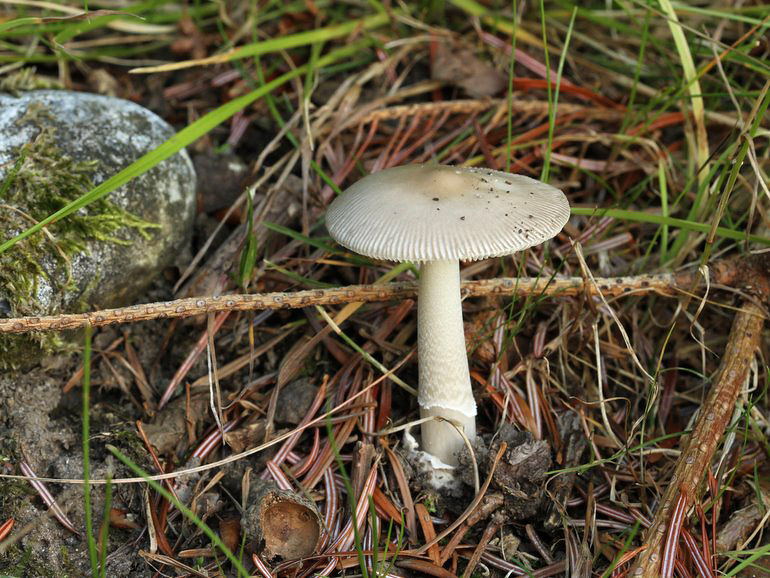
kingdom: Fungi
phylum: Basidiomycota
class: Agaricomycetes
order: Agaricales
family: Amanitaceae
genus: Amanita
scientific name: Amanita vaginata
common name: grå kam-fluesvamp
